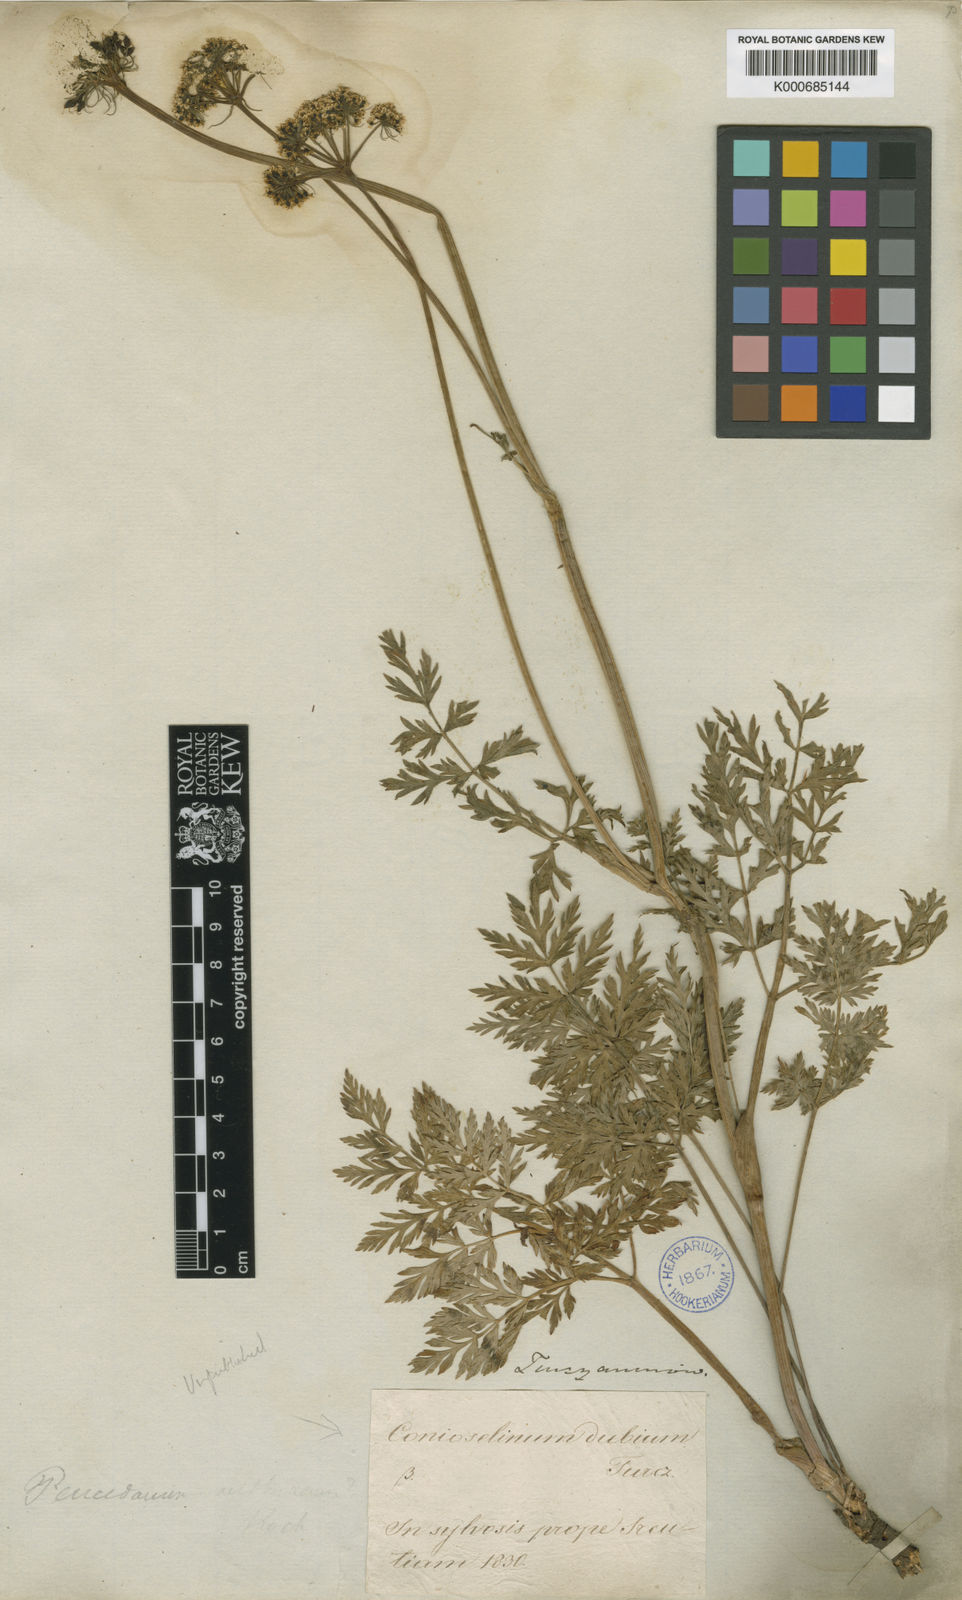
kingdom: Plantae
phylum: Tracheophyta
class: Magnoliopsida
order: Apiales
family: Apiaceae
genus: Conioselinum
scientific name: Conioselinum
